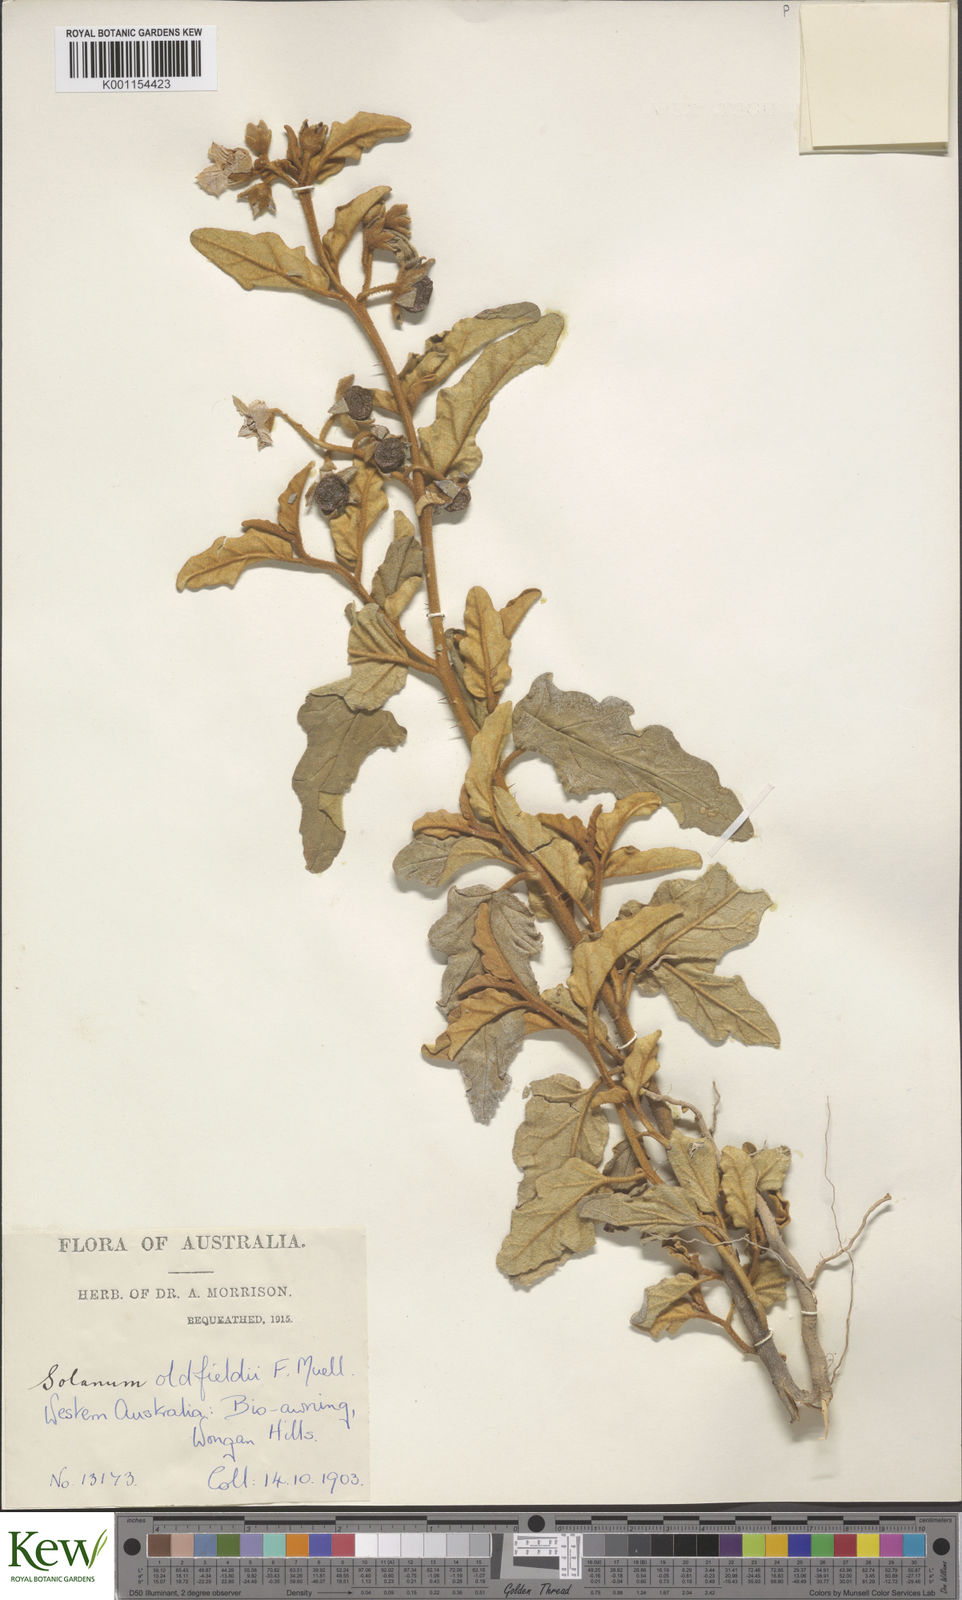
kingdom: Plantae
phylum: Tracheophyta
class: Magnoliopsida
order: Solanales
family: Solanaceae
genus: Solanum
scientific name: Solanum oldfieldii
